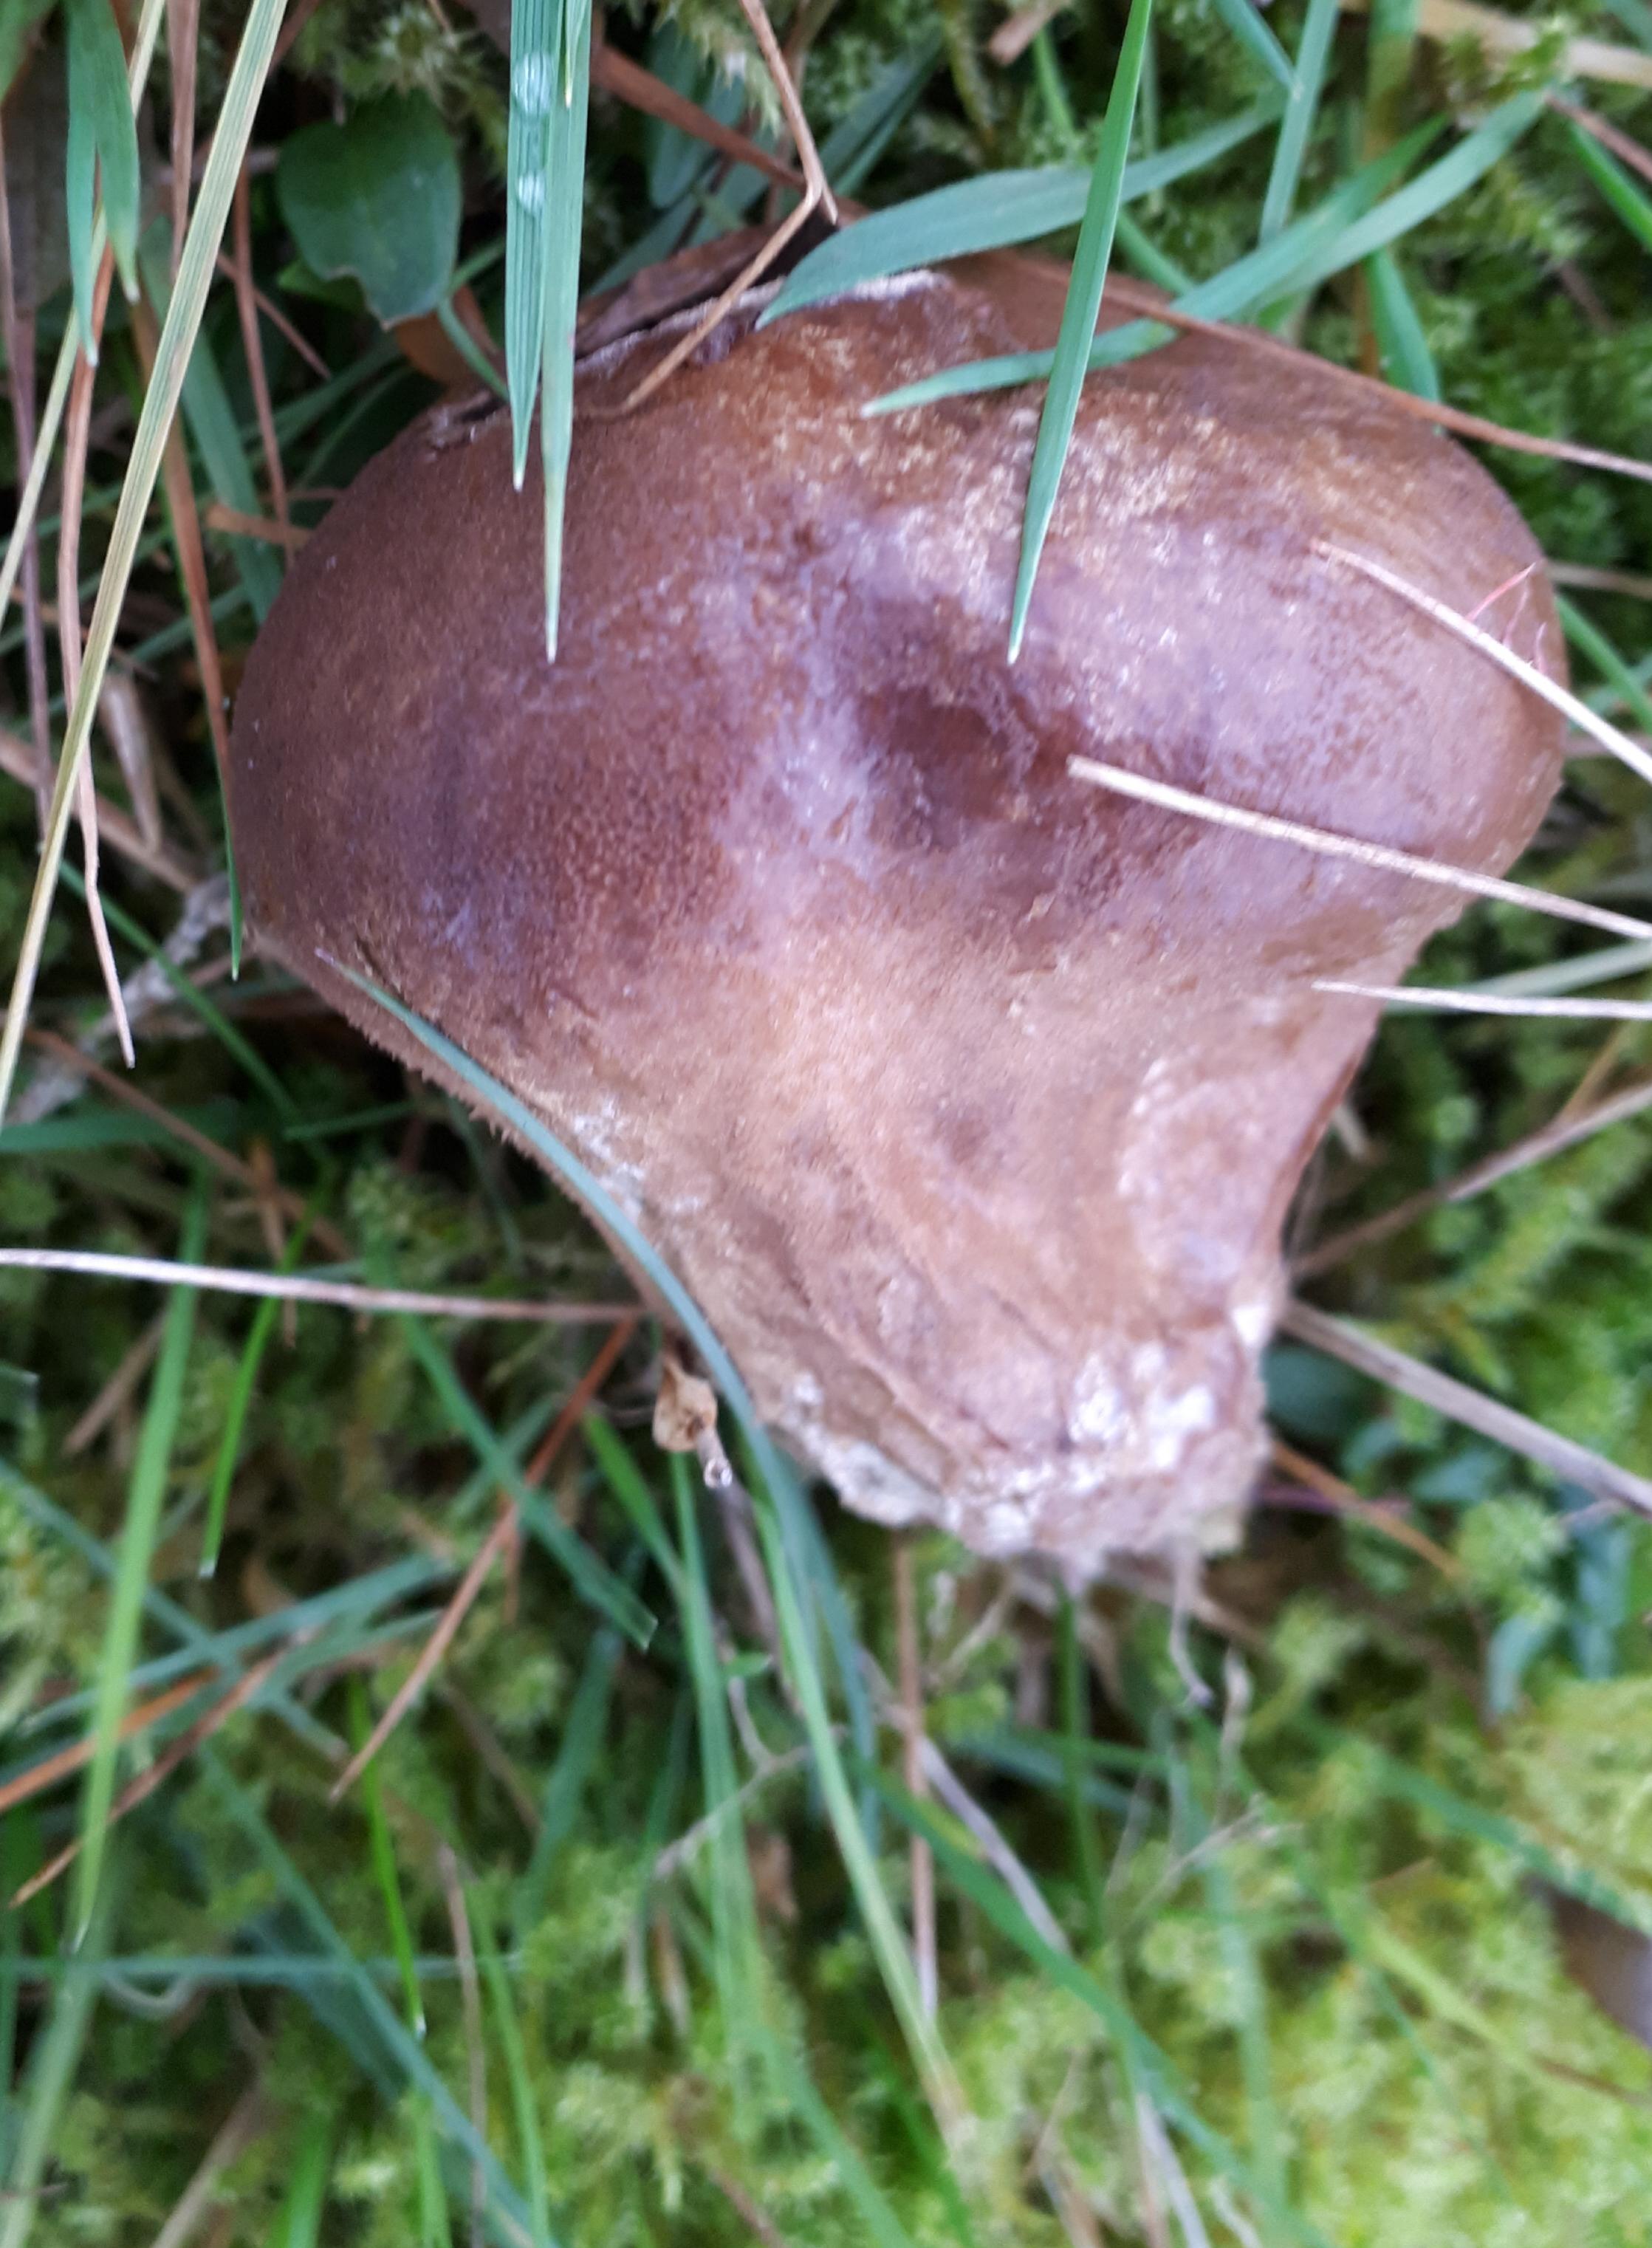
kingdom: Fungi
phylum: Basidiomycota
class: Agaricomycetes
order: Agaricales
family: Lycoperdaceae
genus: Lycoperdon
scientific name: Lycoperdon nigrescens
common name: sortagtig støvbold
